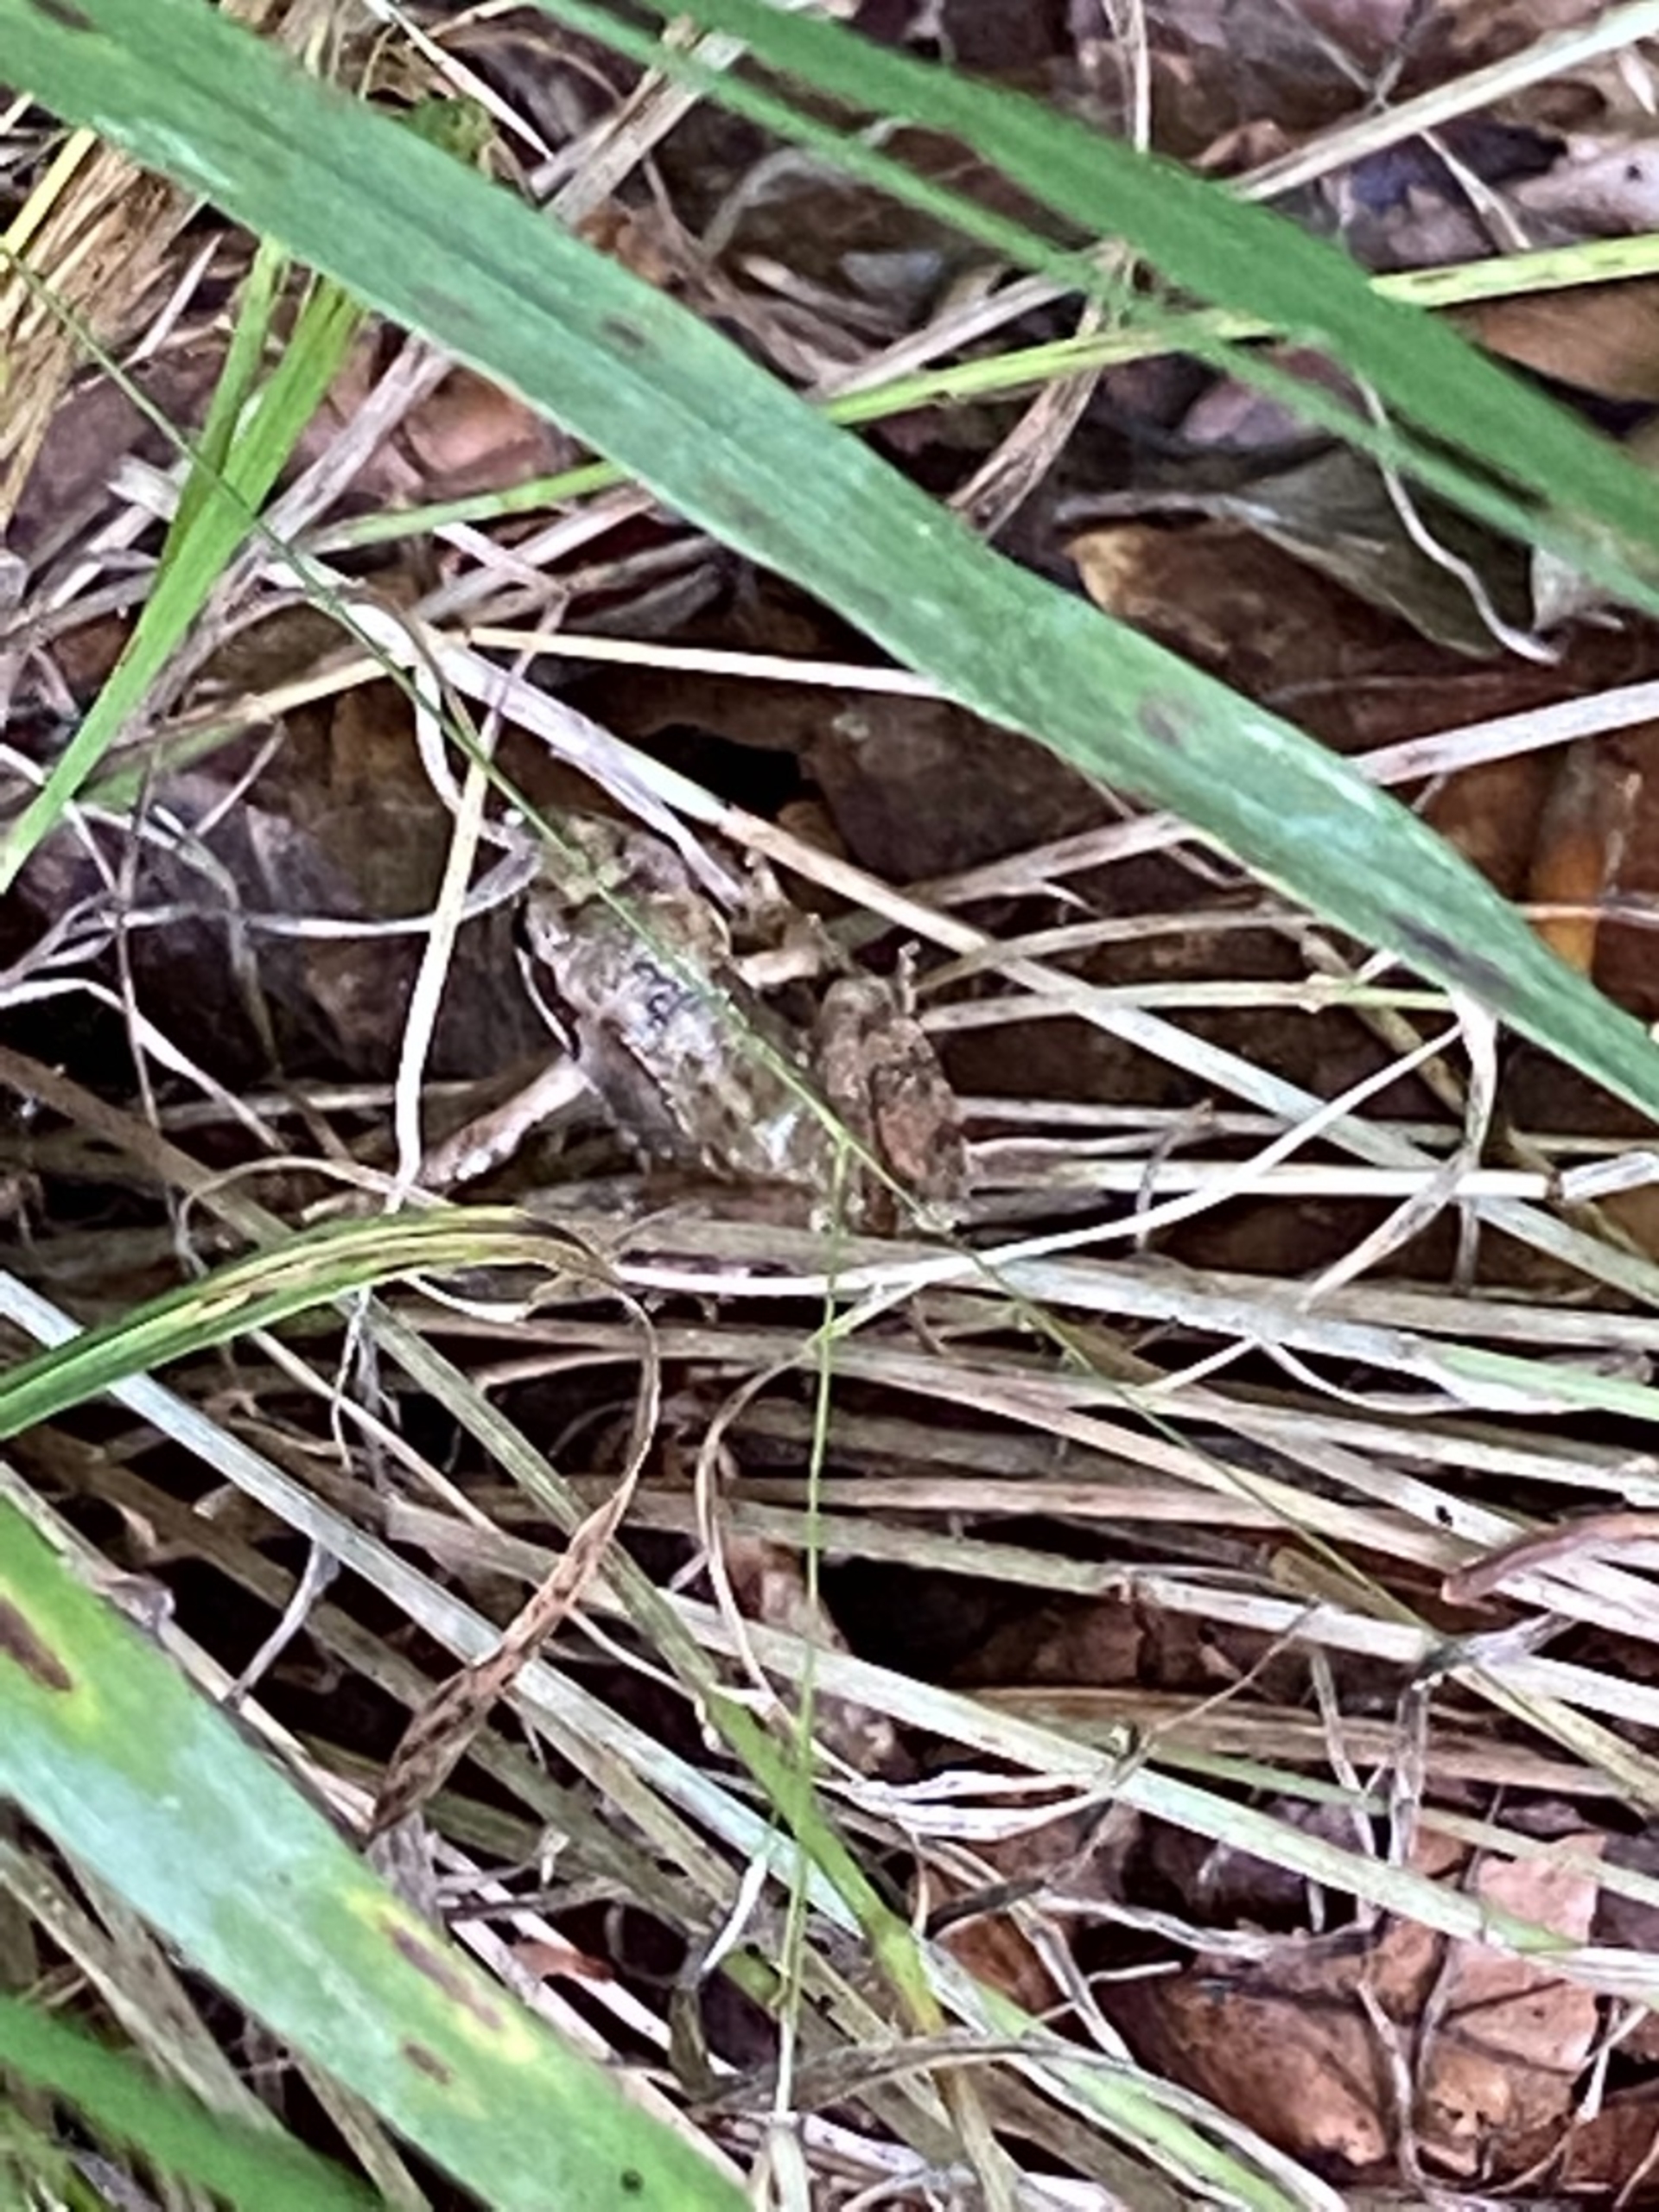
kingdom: Animalia
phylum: Chordata
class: Amphibia
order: Anura
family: Ranidae
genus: Rana
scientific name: Rana temporaria
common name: Butsnudet frø
